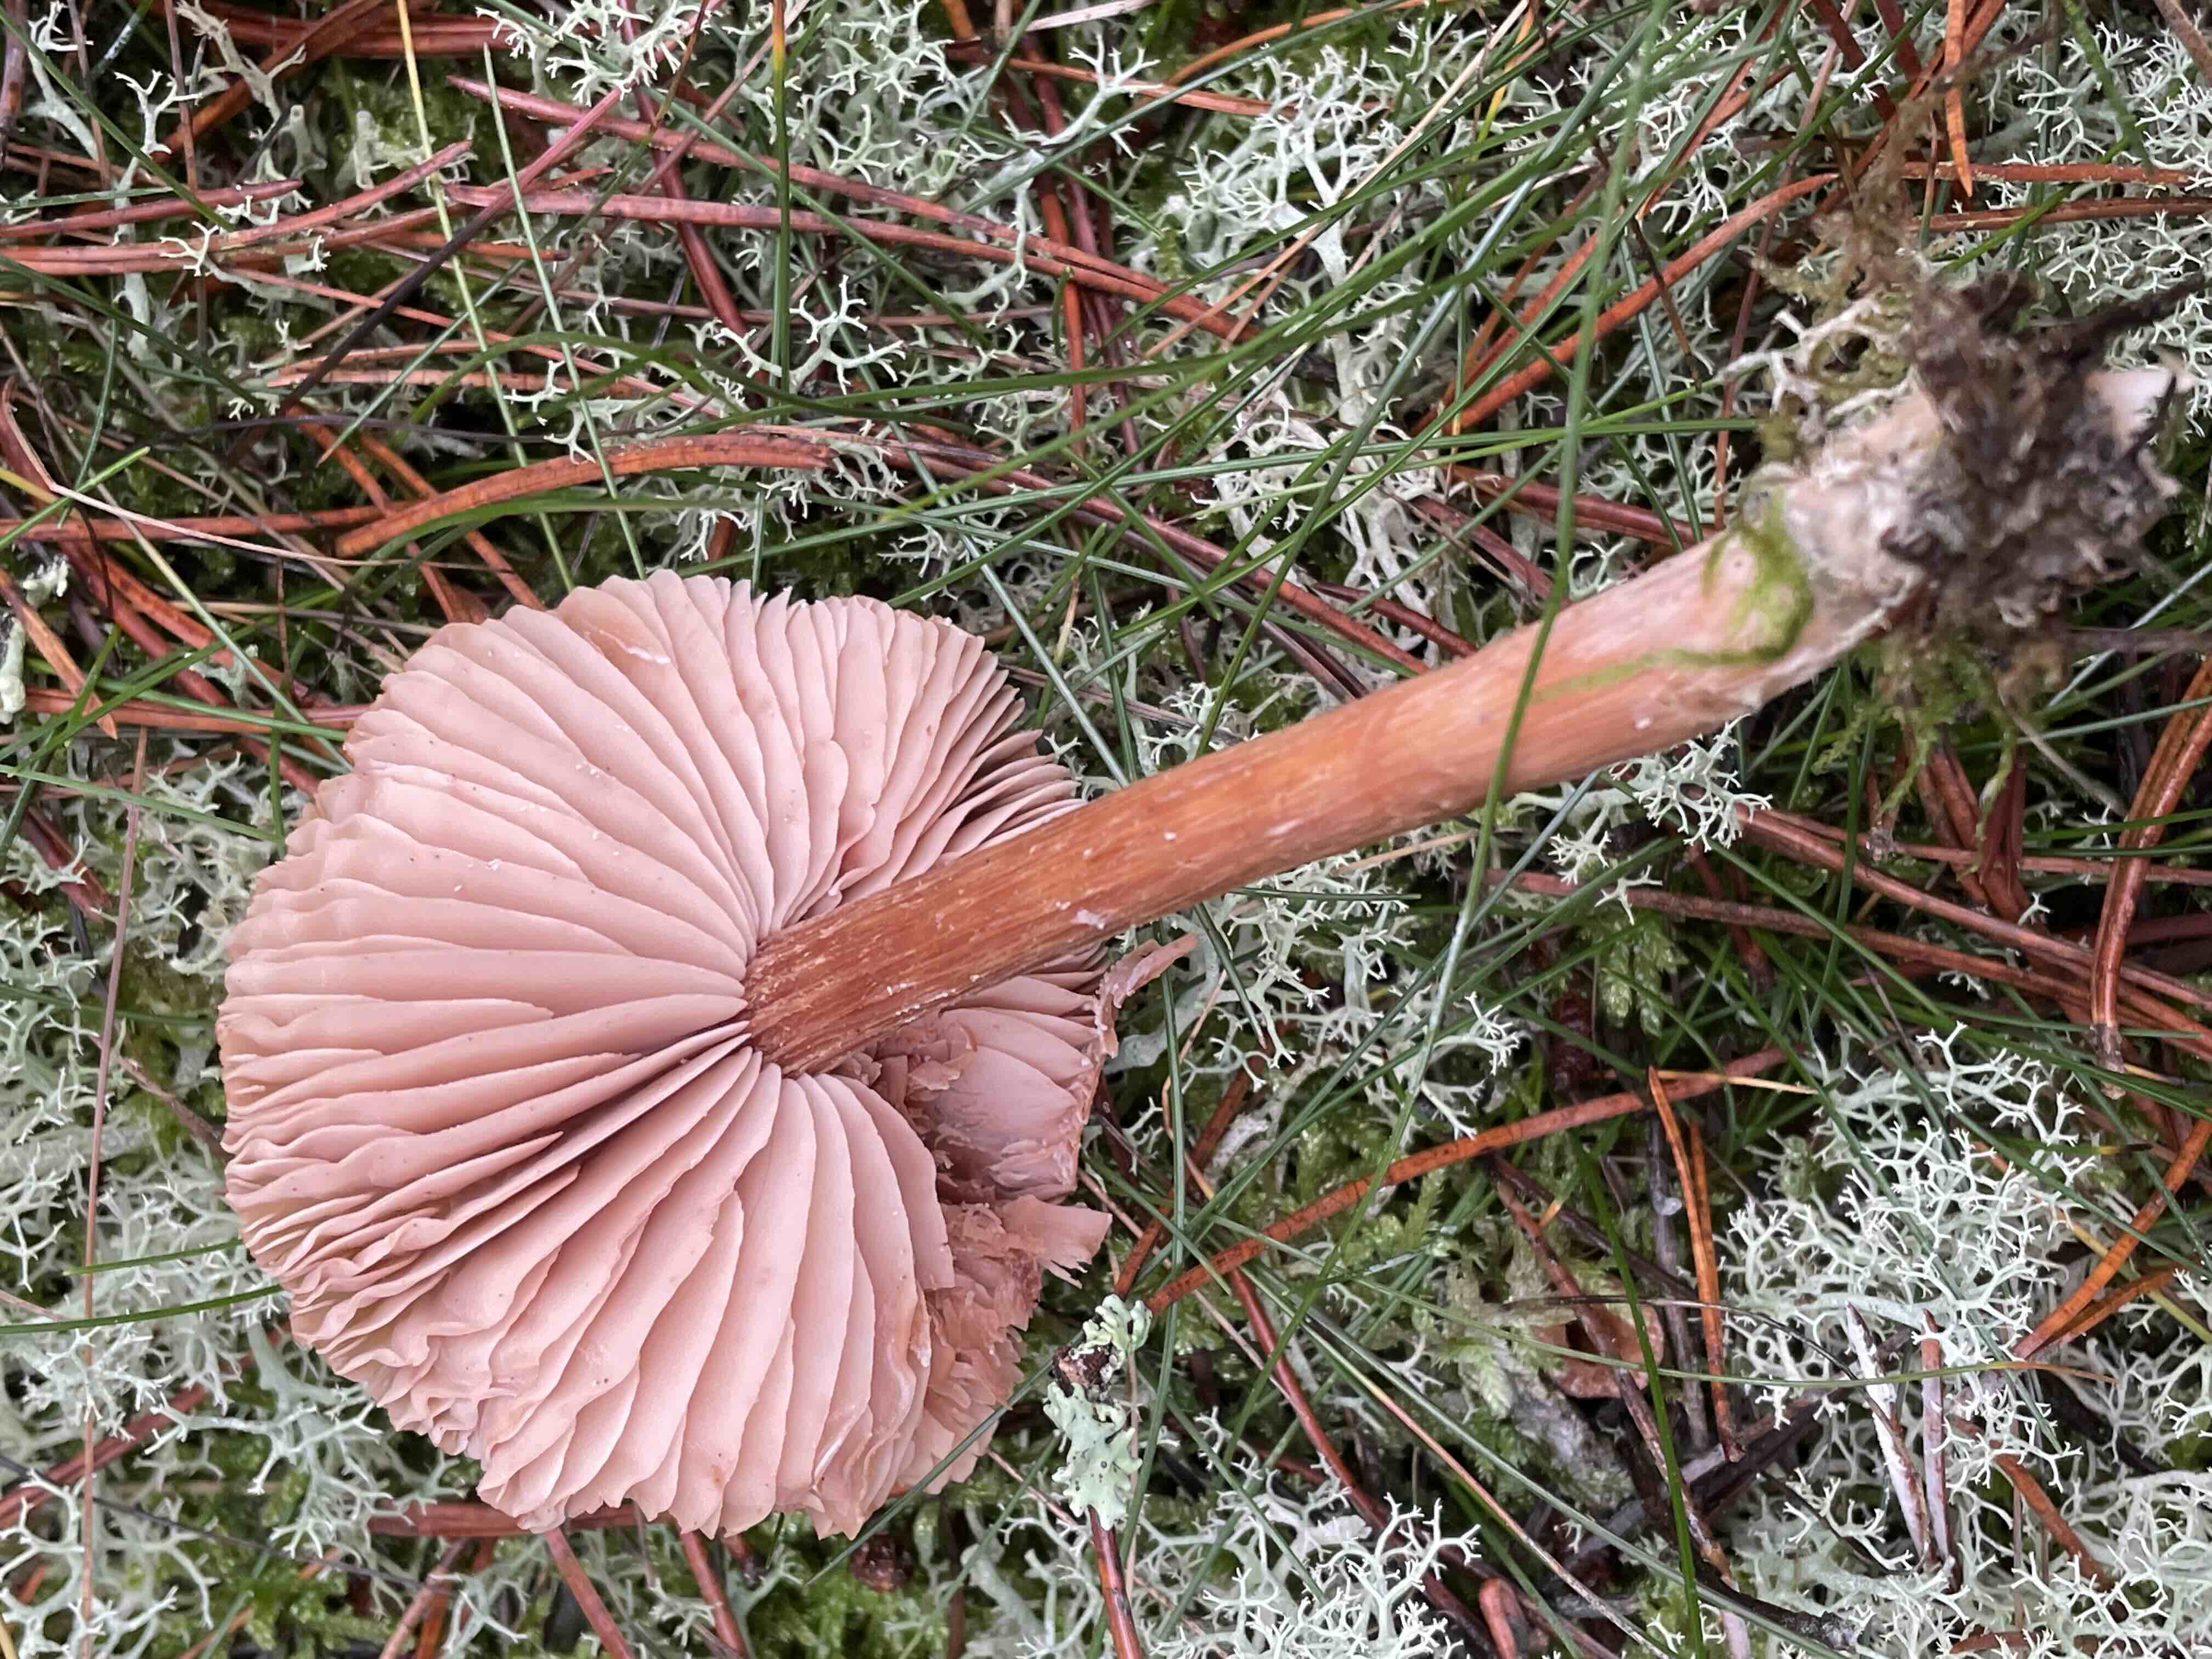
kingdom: Fungi
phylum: Basidiomycota
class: Agaricomycetes
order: Agaricales
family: Hydnangiaceae
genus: Laccaria
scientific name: Laccaria bicolor
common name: tvefarvet ametysthat
